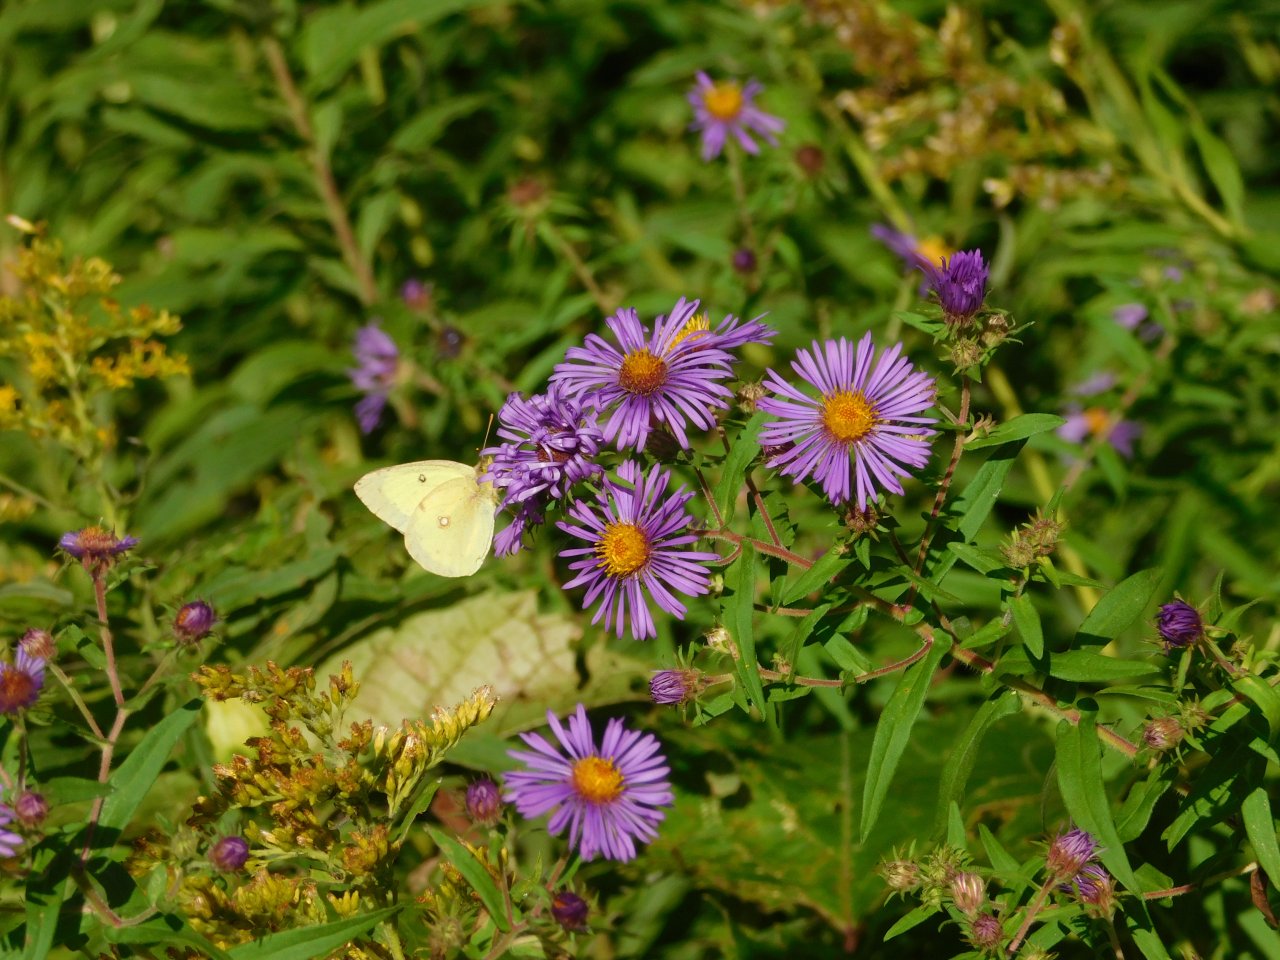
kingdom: Animalia
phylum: Arthropoda
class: Insecta
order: Lepidoptera
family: Pieridae
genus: Colias
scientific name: Colias philodice
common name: Clouded Sulphur
